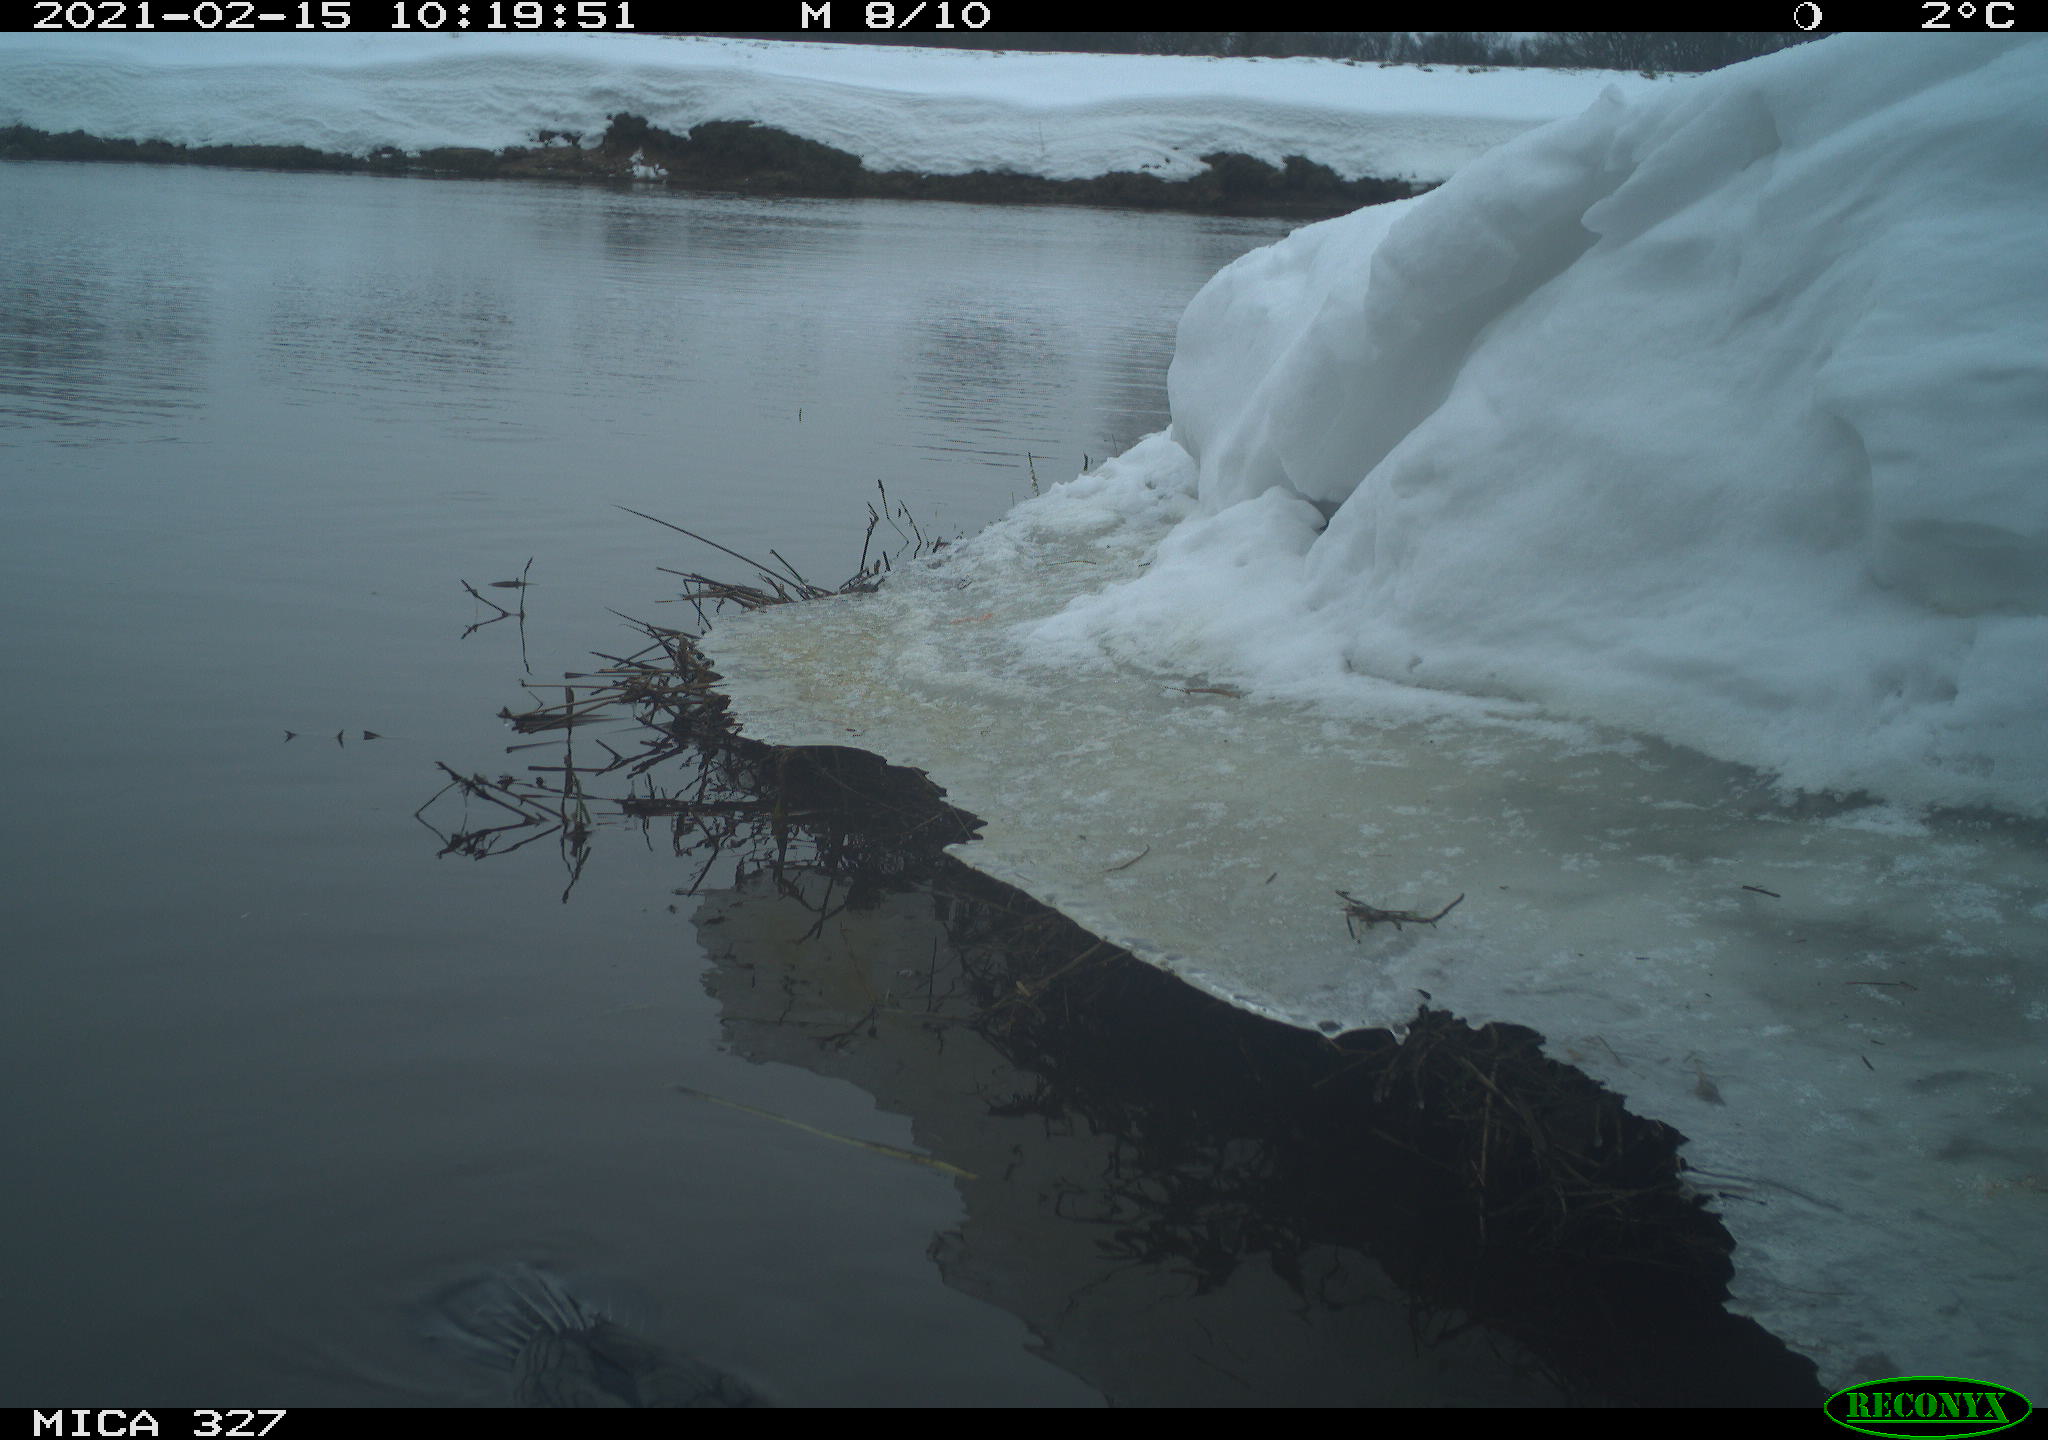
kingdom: Animalia
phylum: Chordata
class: Aves
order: Suliformes
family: Phalacrocoracidae
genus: Phalacrocorax
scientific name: Phalacrocorax carbo
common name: Great cormorant
